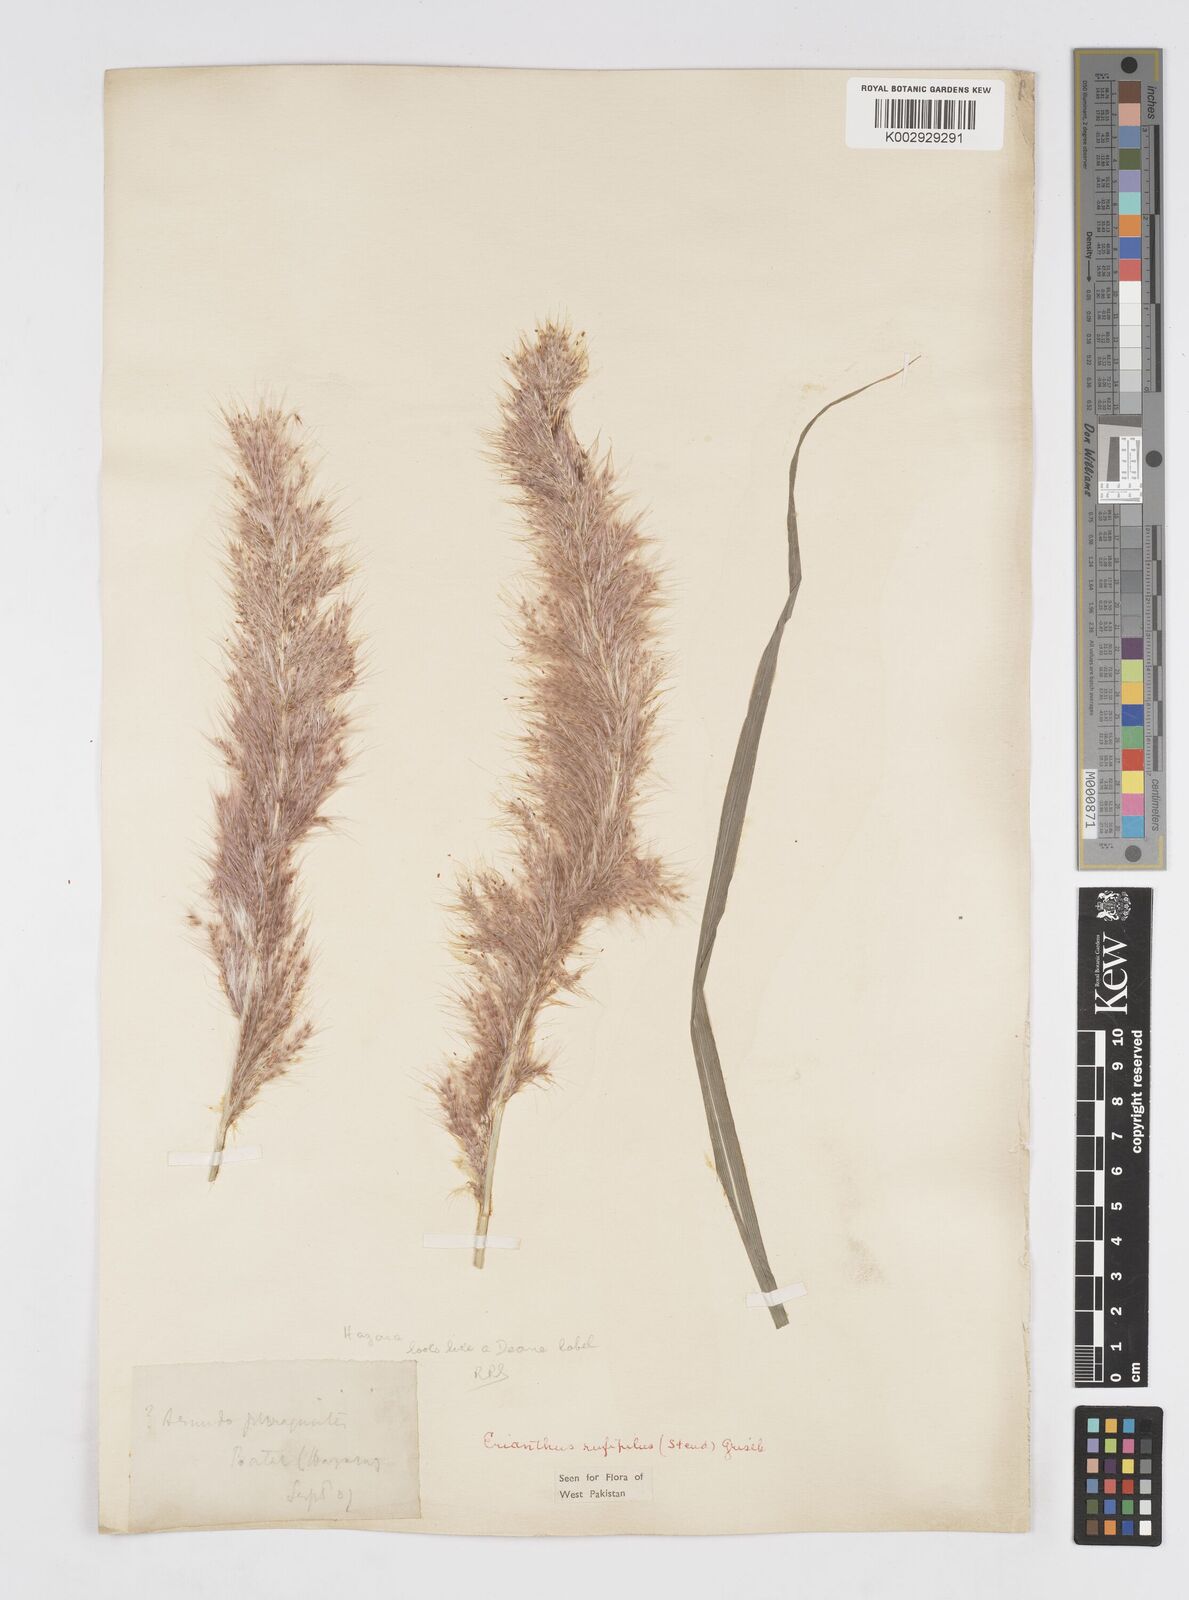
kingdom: Plantae
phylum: Tracheophyta
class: Liliopsida
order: Poales
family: Poaceae
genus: Tripidium
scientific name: Tripidium rufipilum
